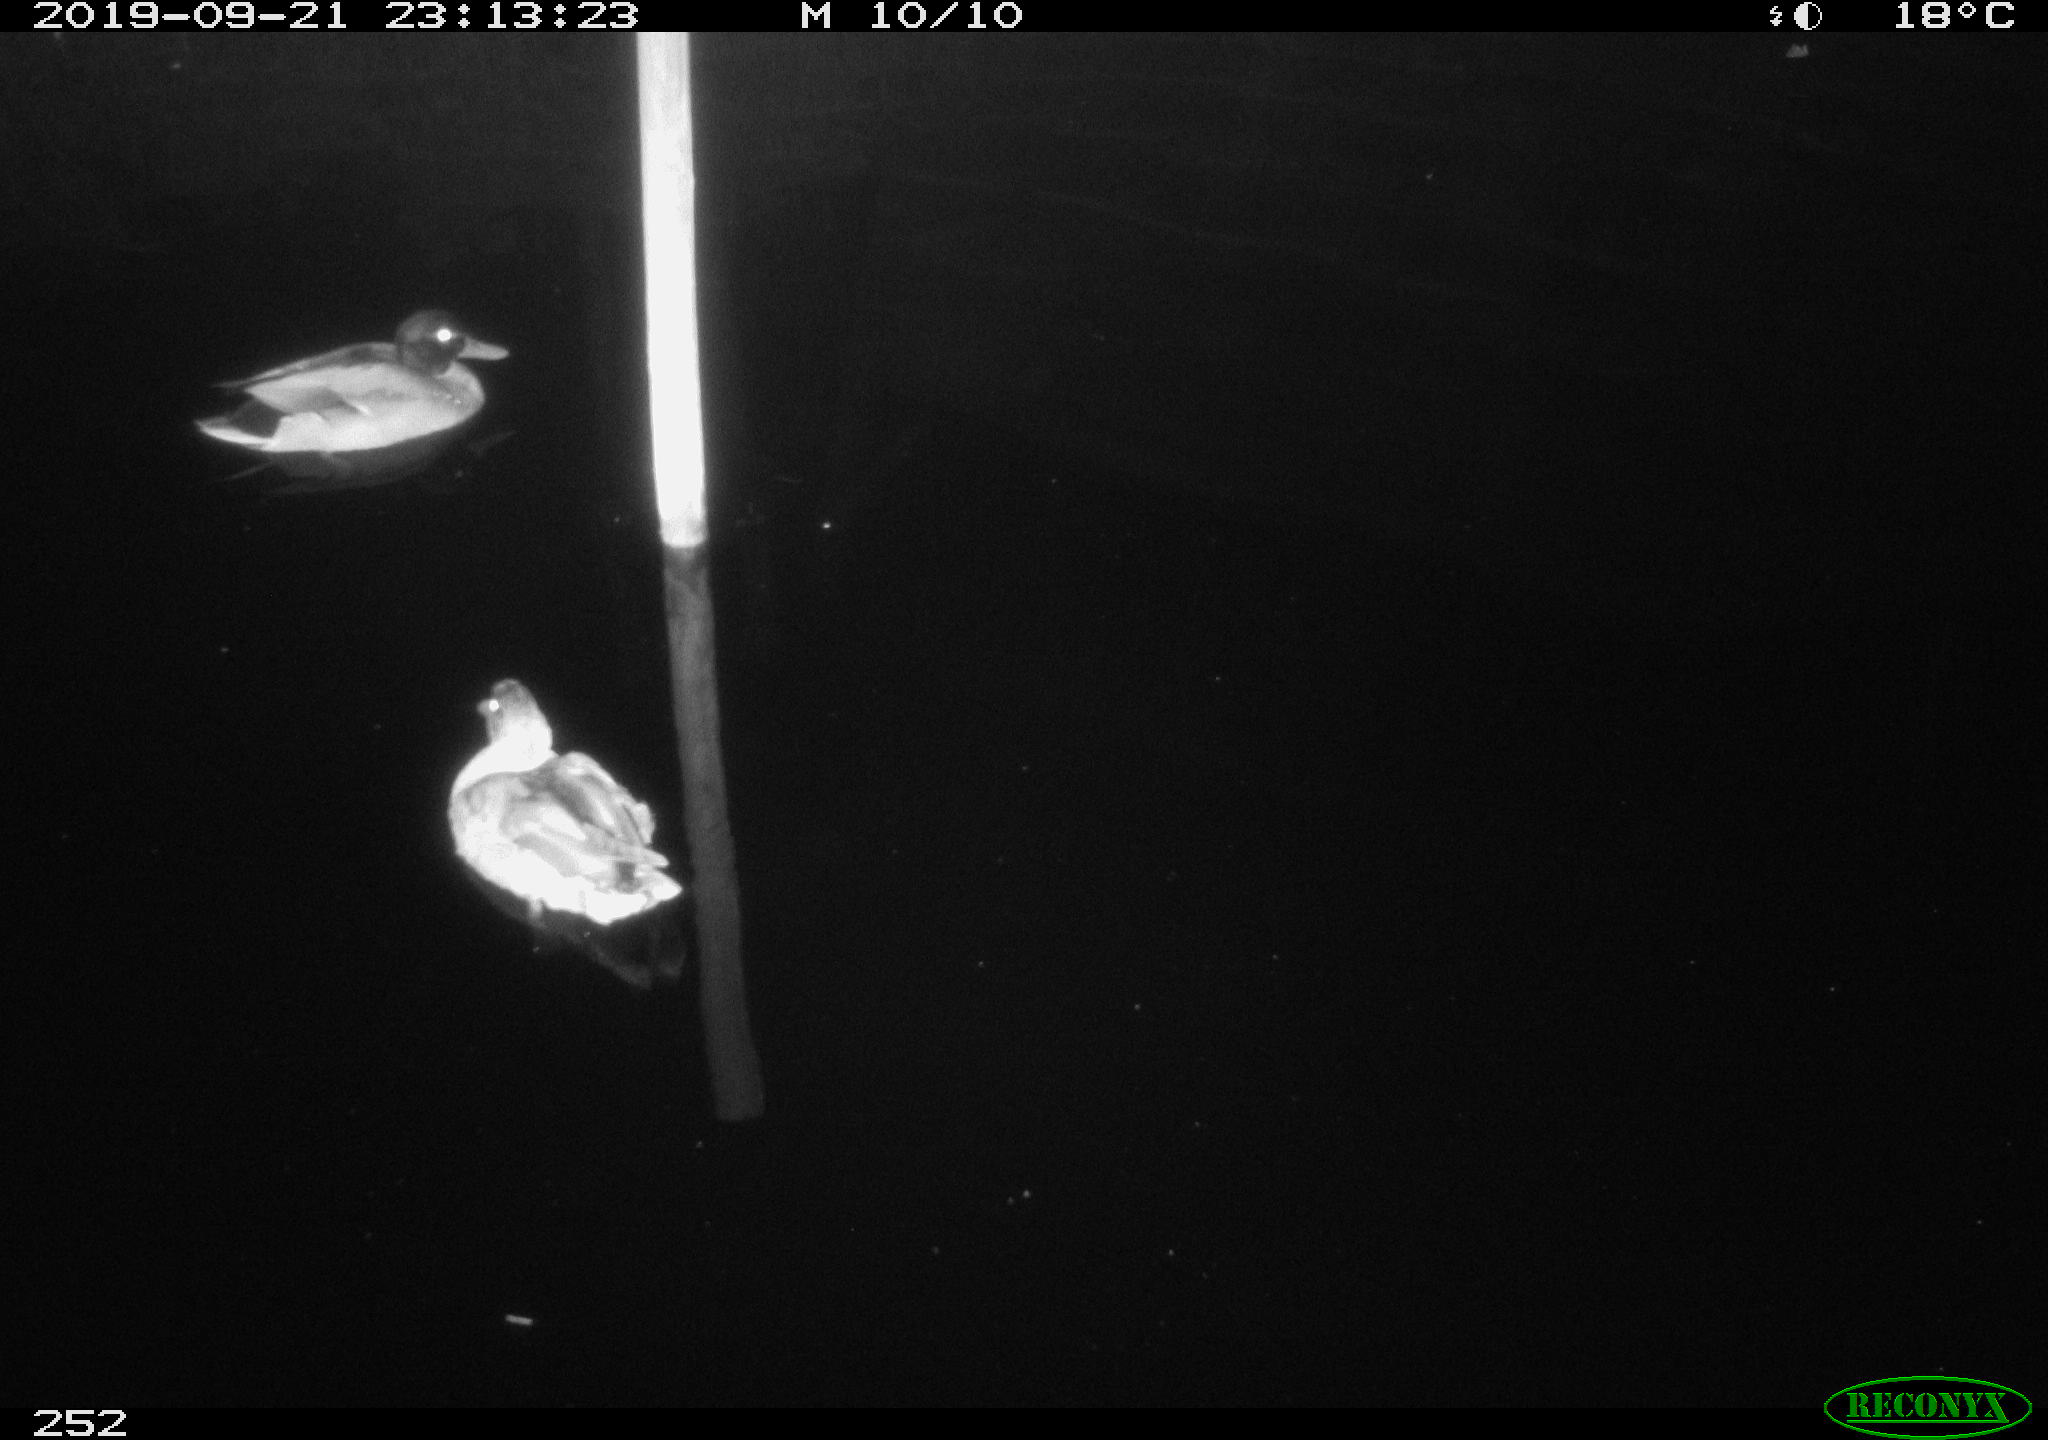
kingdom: Animalia
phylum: Chordata
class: Aves
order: Anseriformes
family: Anatidae
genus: Anas
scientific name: Anas platyrhynchos
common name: Mallard
